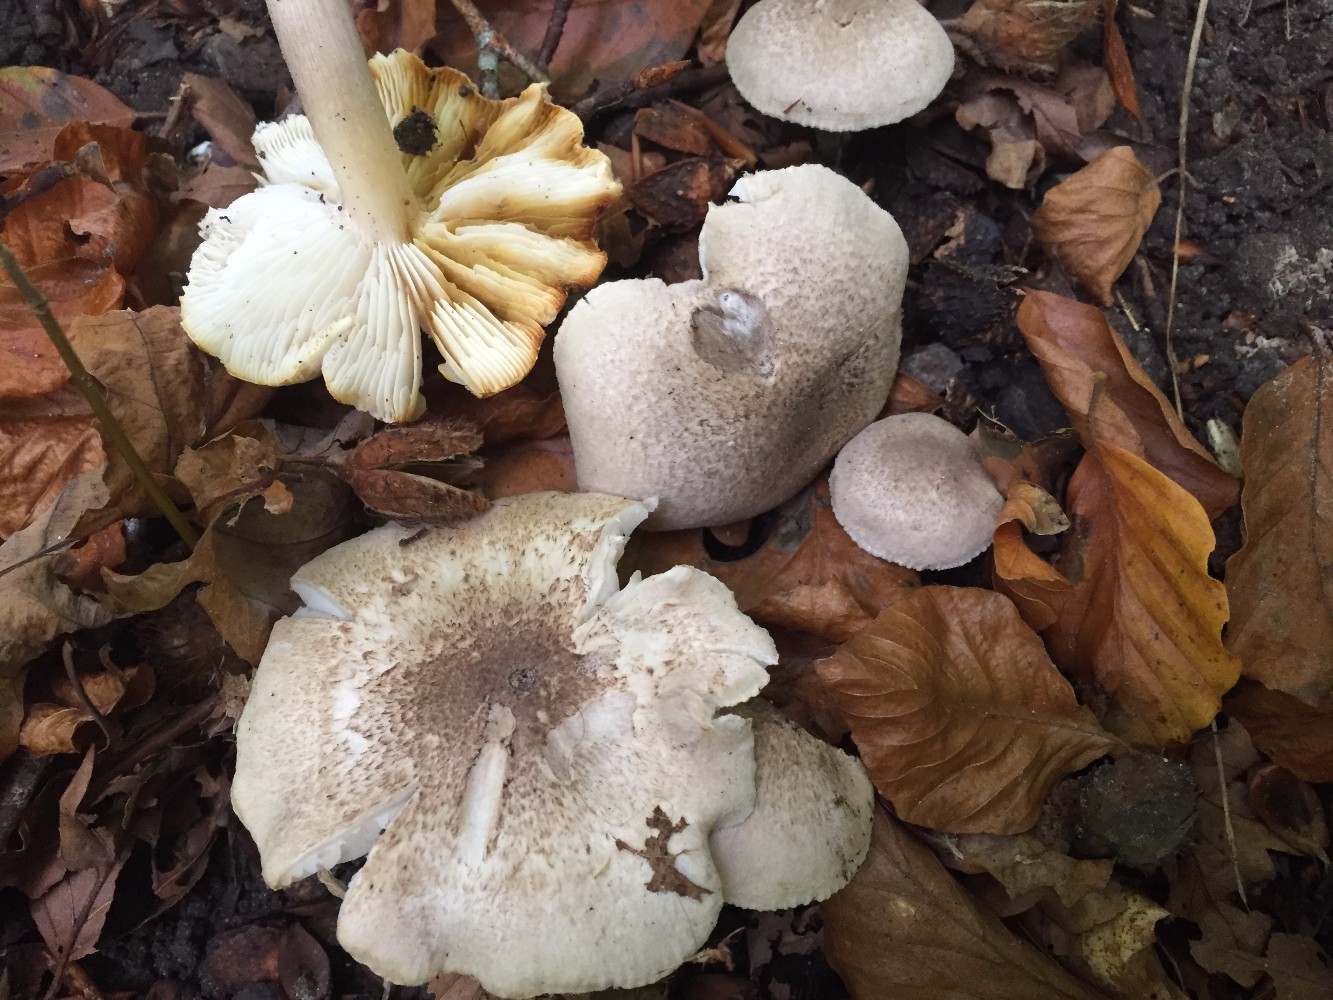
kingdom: Fungi
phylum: Basidiomycota
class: Agaricomycetes
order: Agaricales
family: Tricholomataceae
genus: Tricholoma
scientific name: Tricholoma scalpturatum
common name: gulplettet ridderhat
